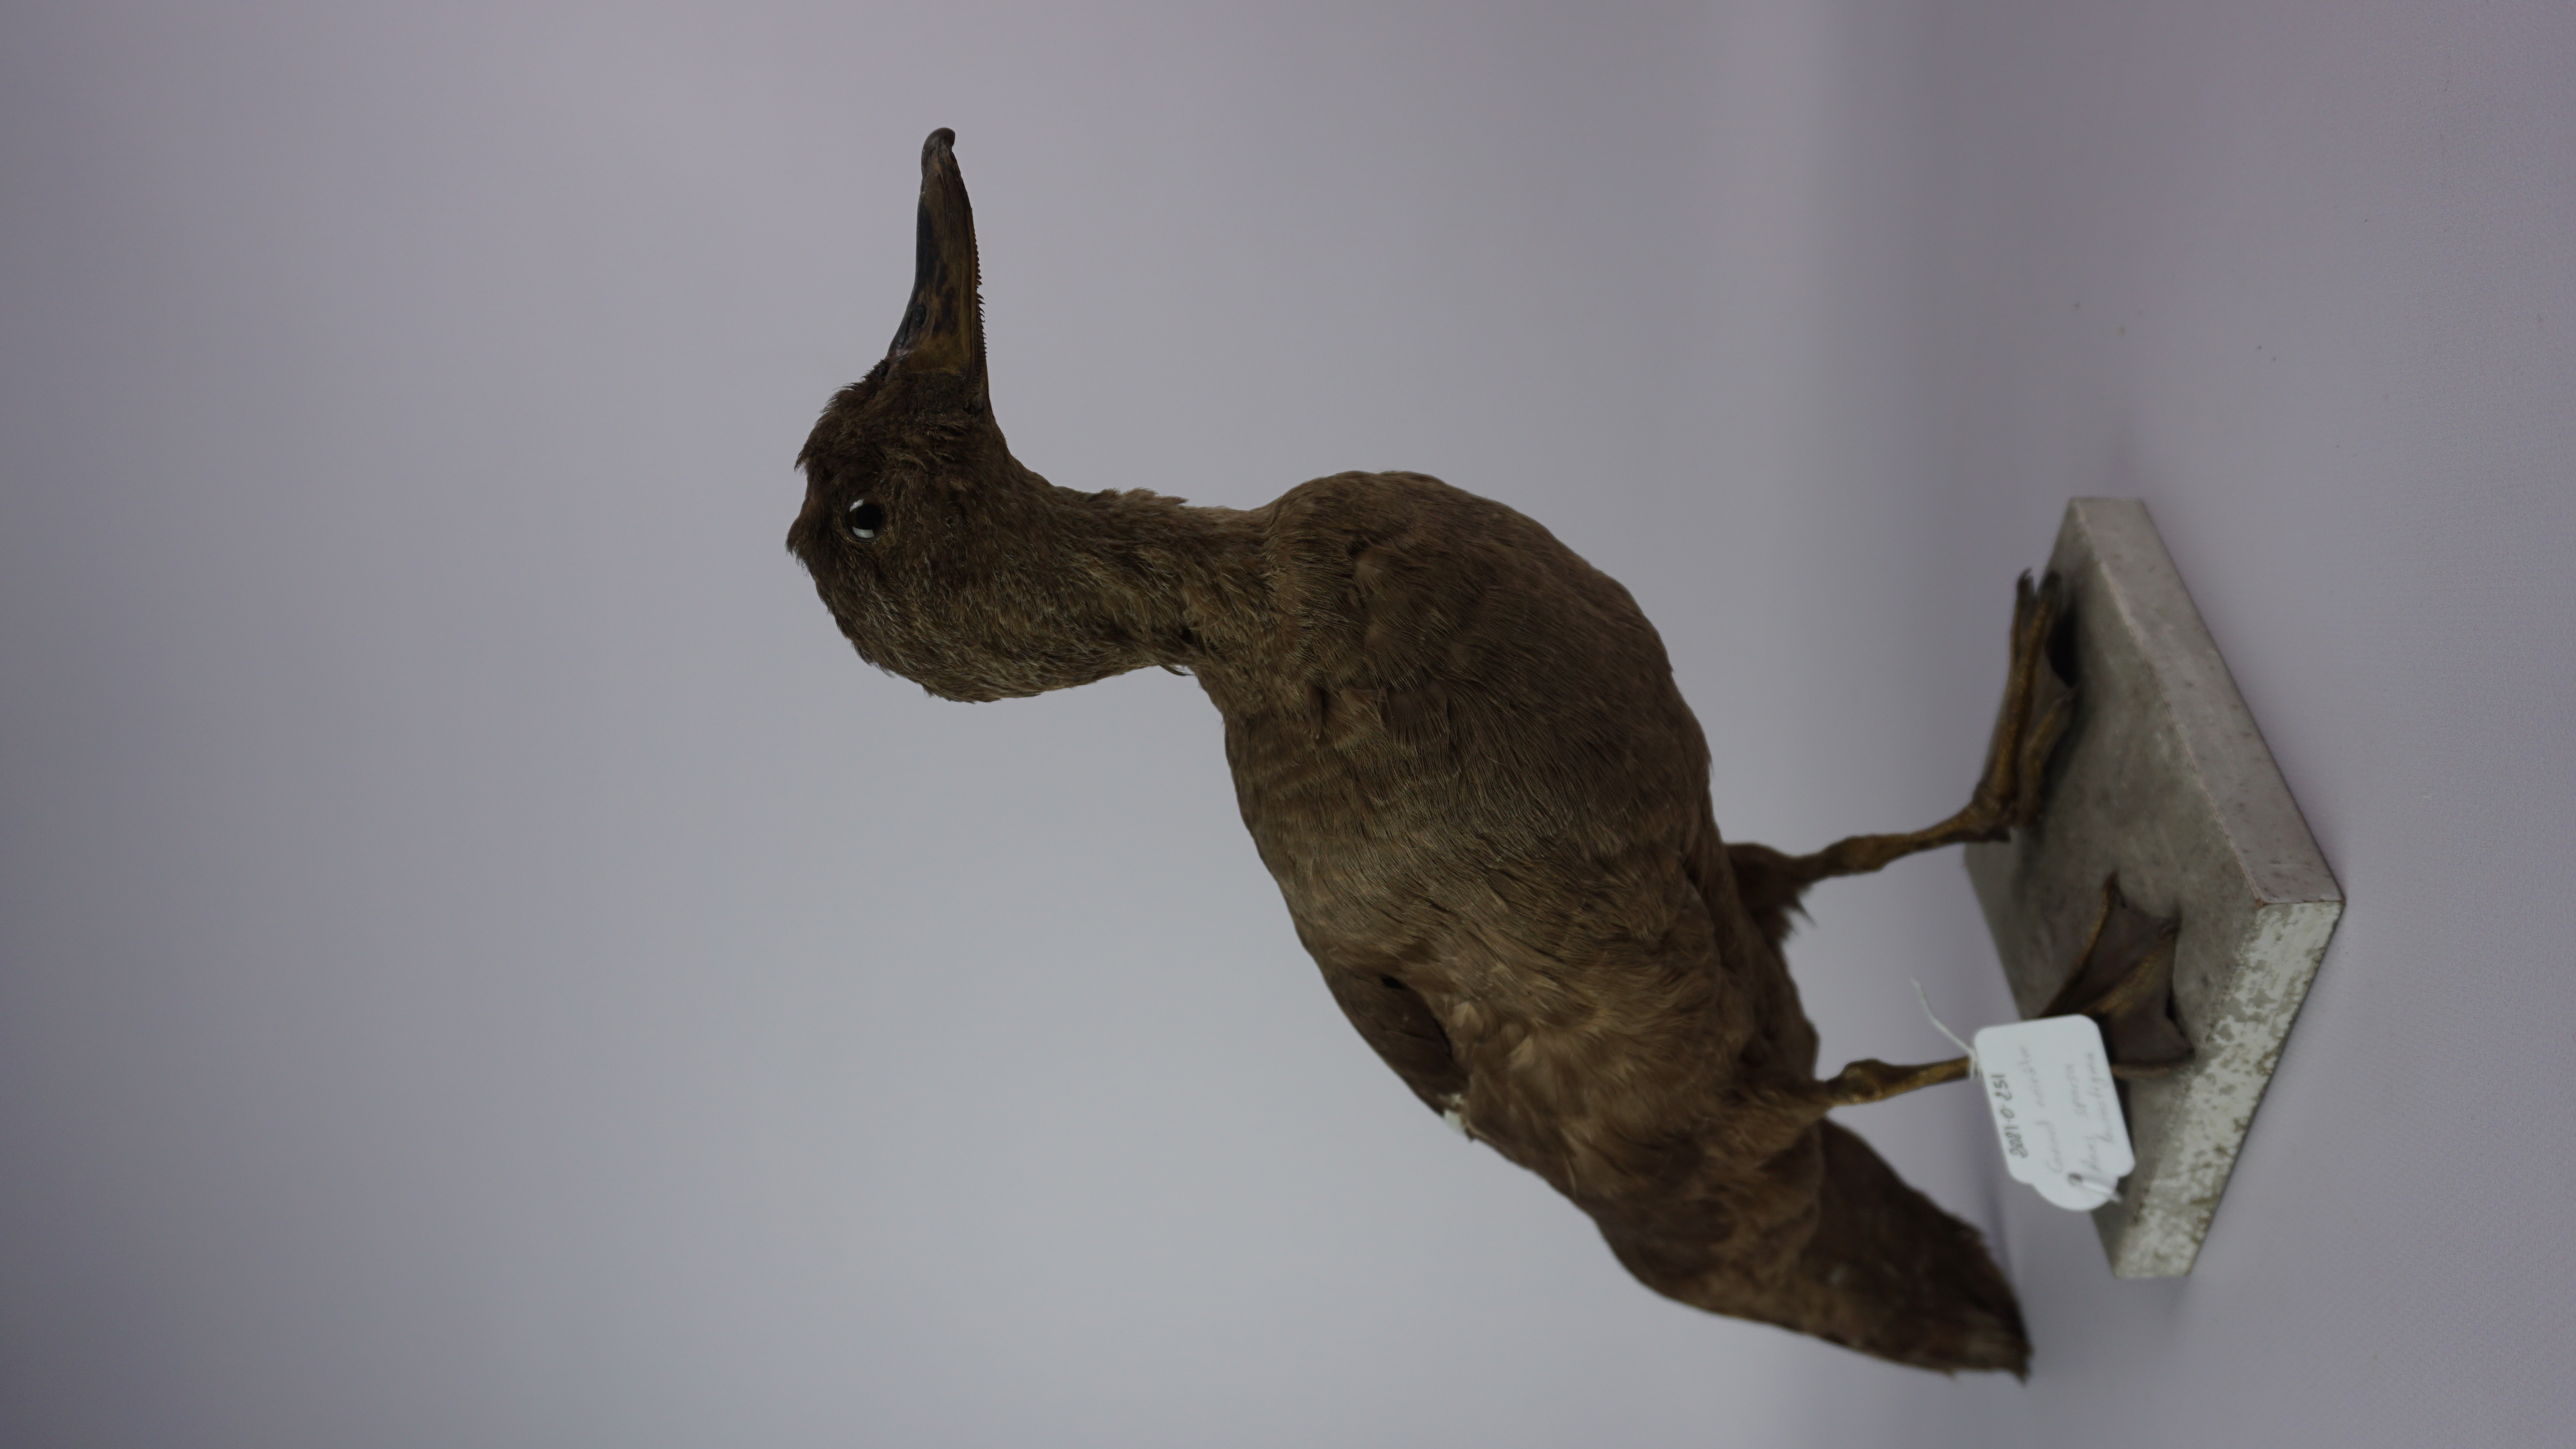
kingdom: Animalia
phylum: Chordata
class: Aves
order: Anseriformes
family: Anatidae
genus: Anas
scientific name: Anas sparsa
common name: African black duck
